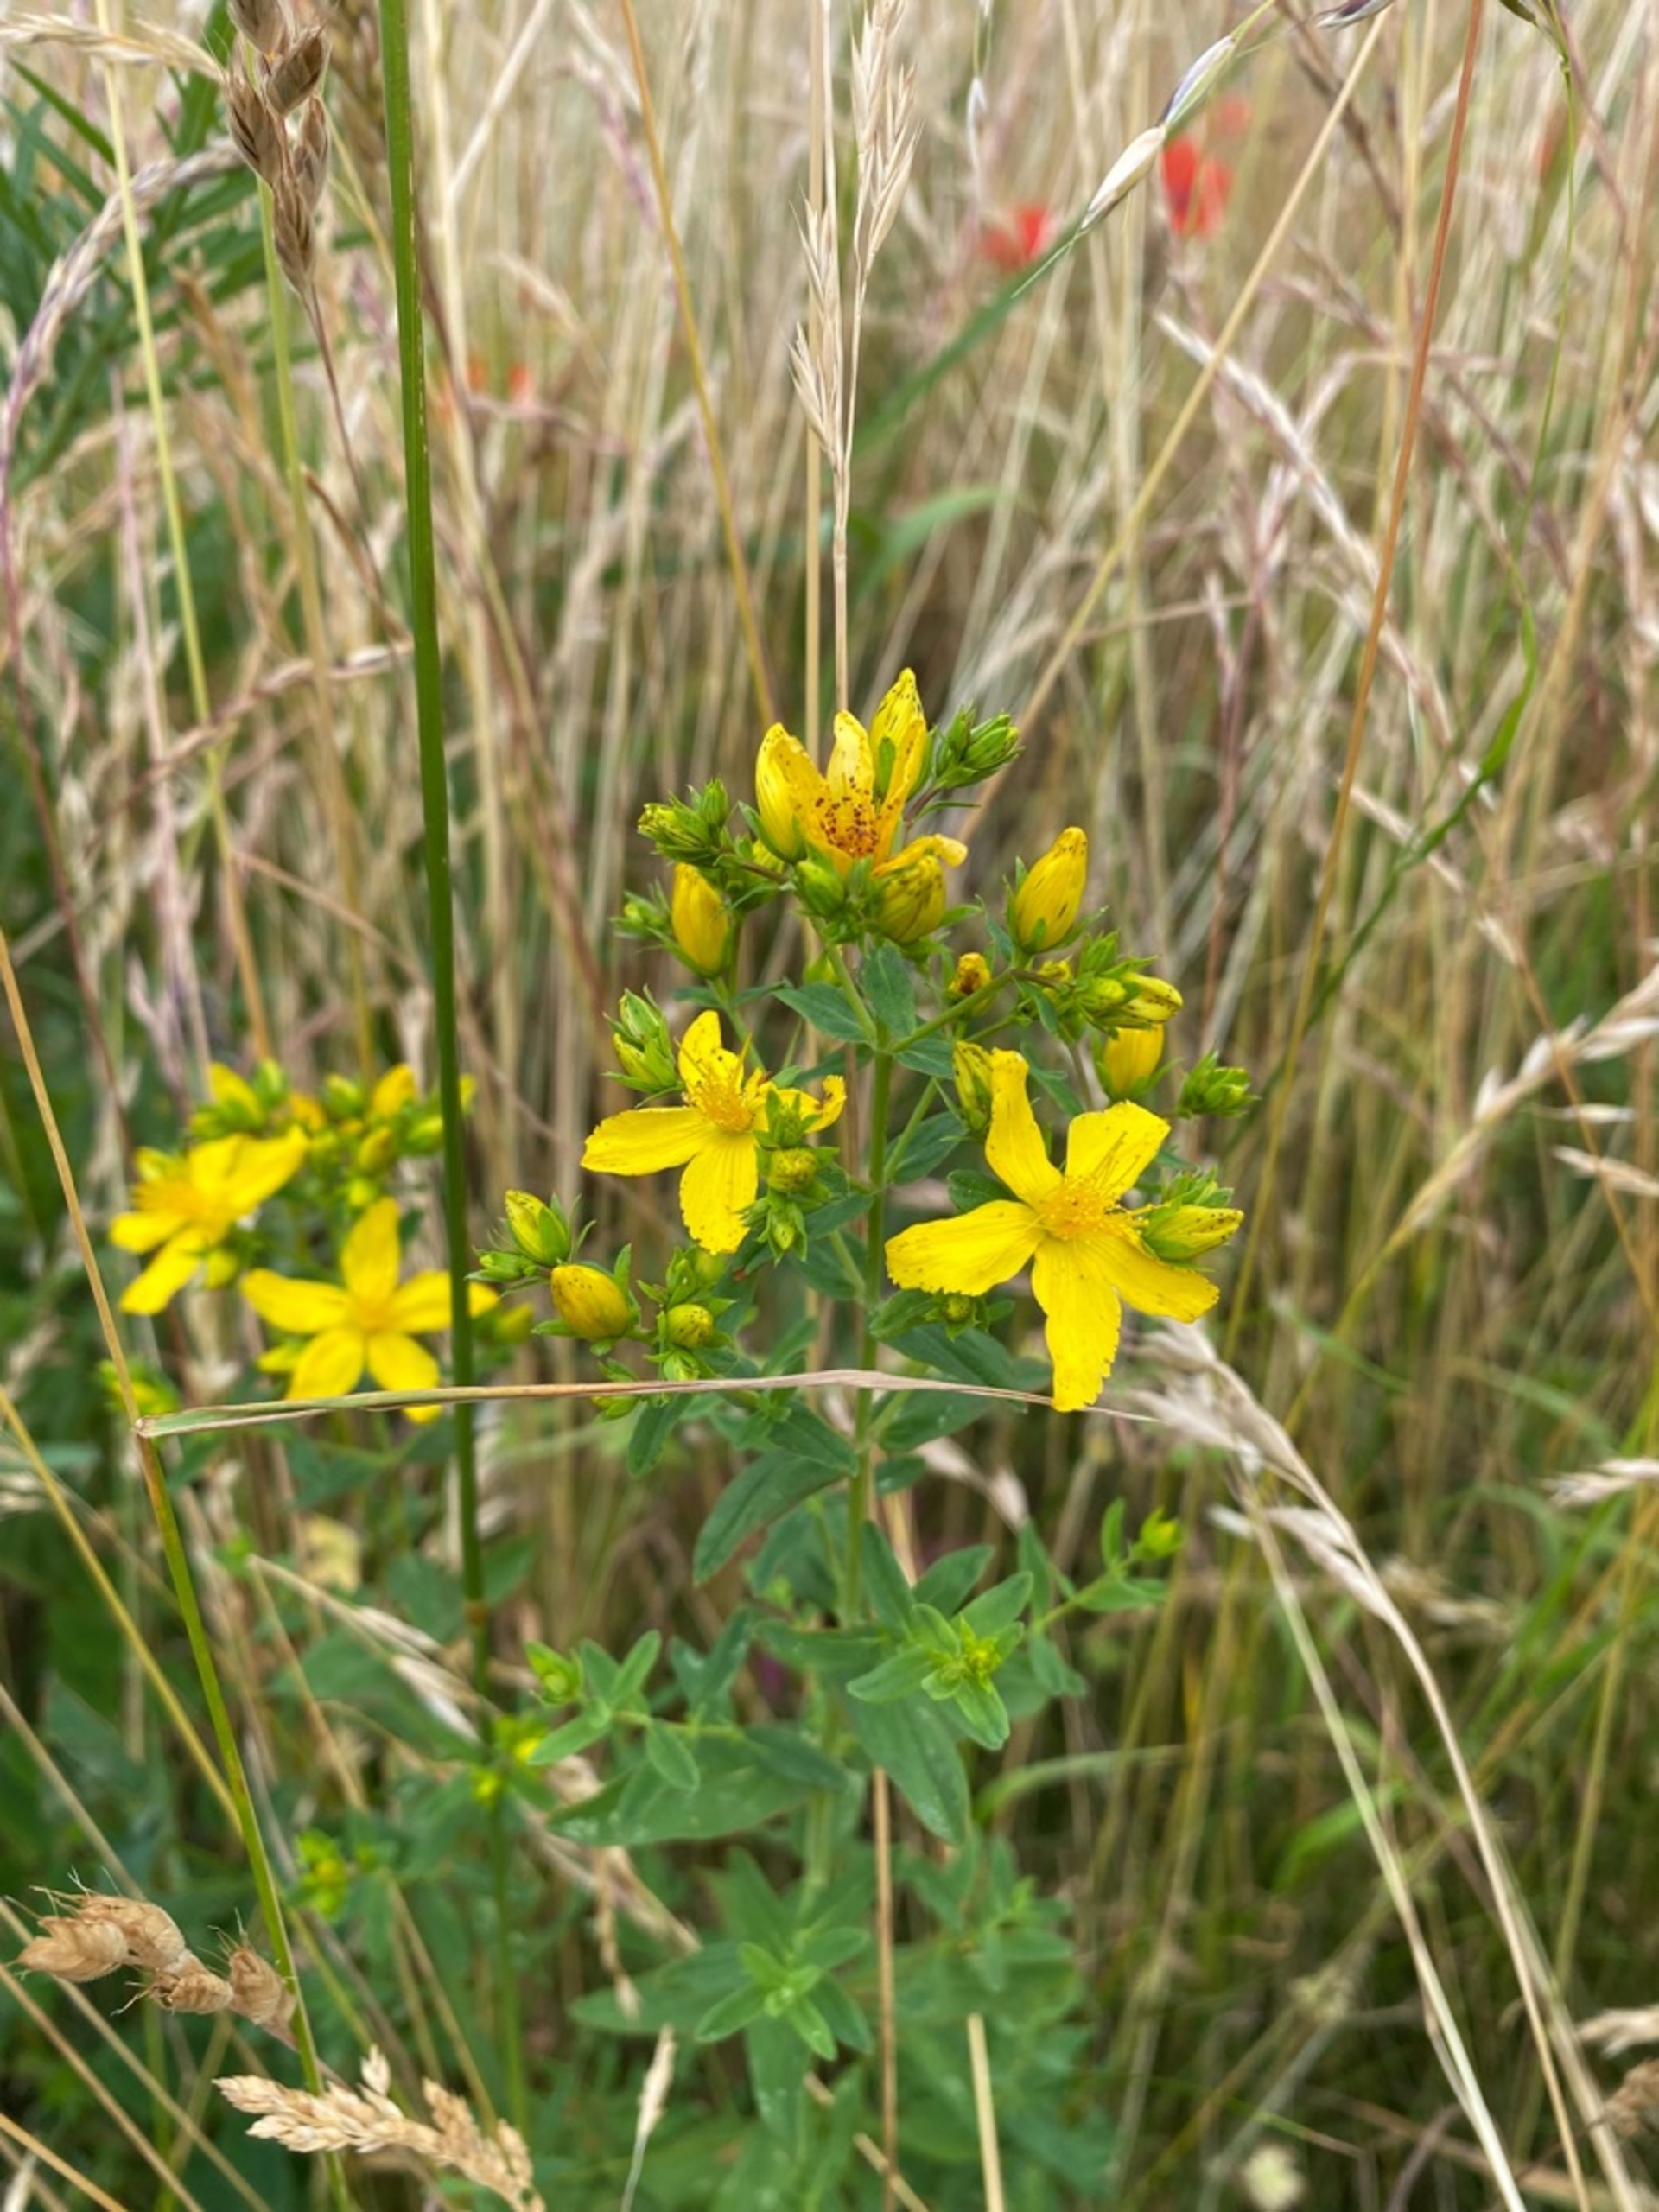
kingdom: Plantae
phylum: Tracheophyta
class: Magnoliopsida
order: Malpighiales
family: Hypericaceae
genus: Hypericum
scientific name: Hypericum perforatum
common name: Prikbladet perikon
